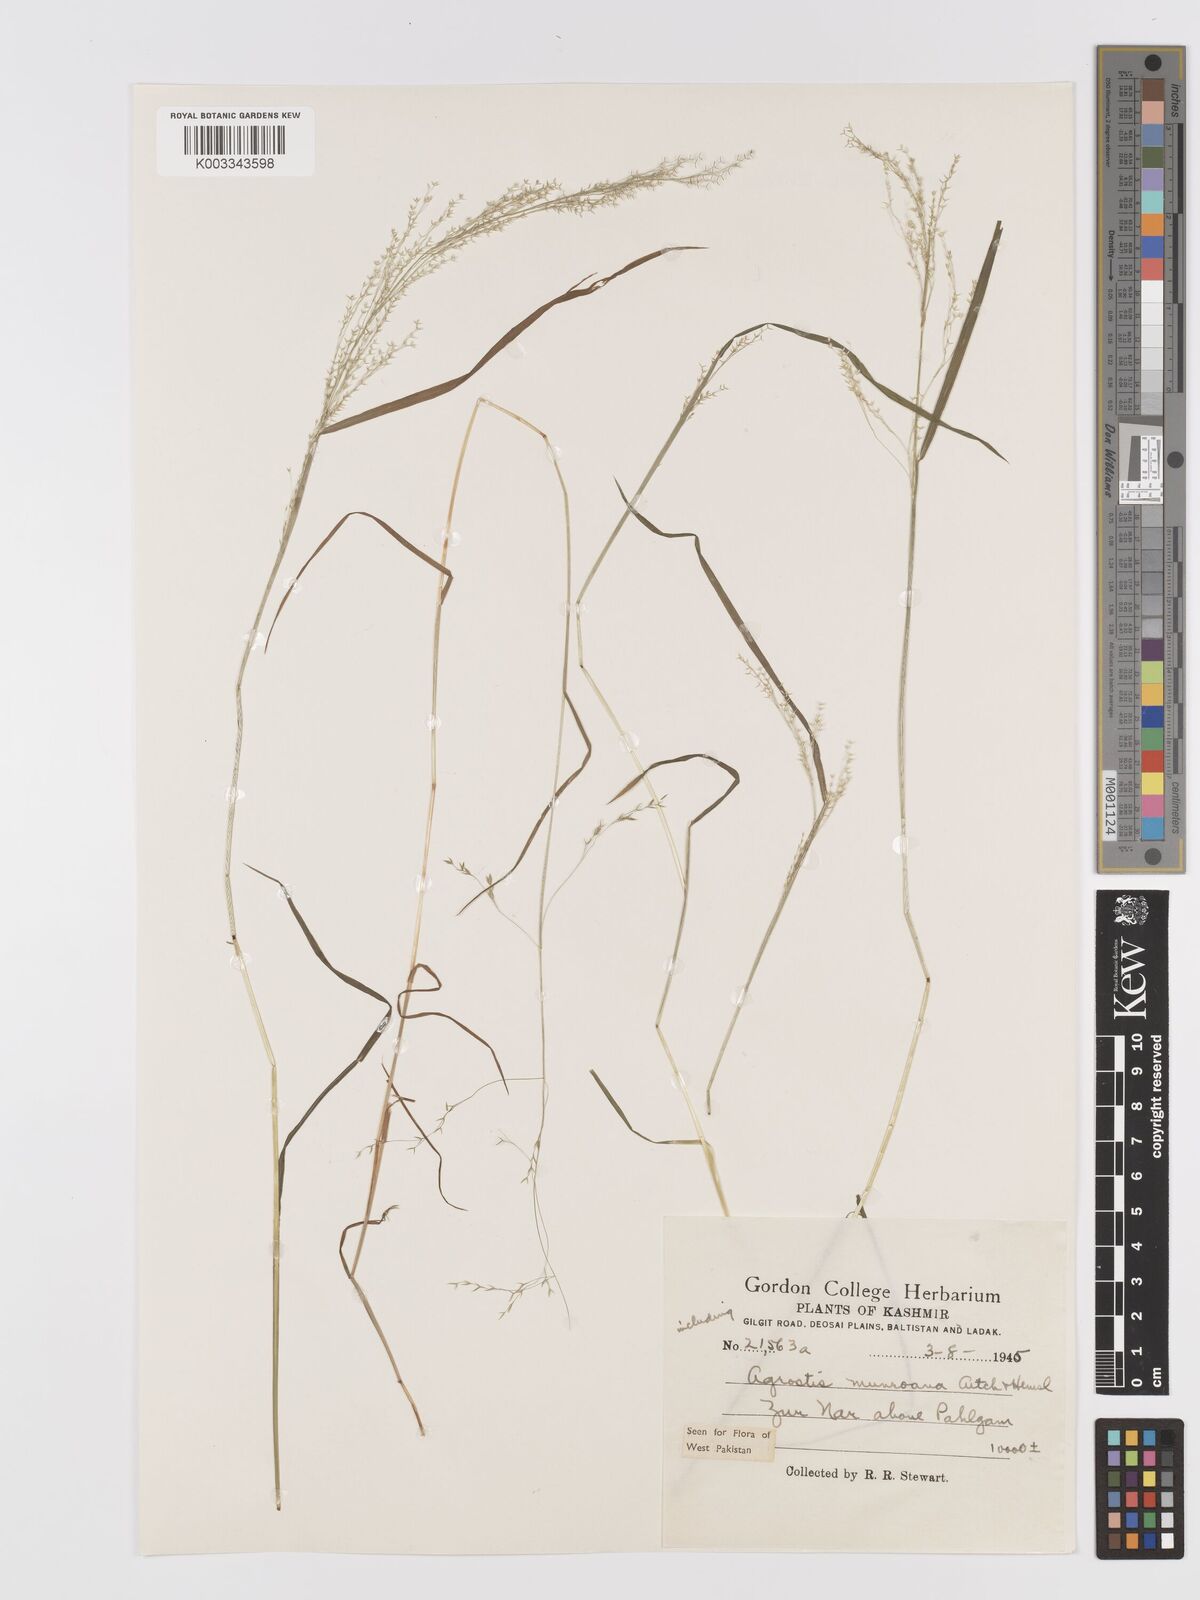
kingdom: Plantae
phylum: Tracheophyta
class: Liliopsida
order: Poales
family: Poaceae
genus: Agrostis
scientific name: Agrostis munroana
